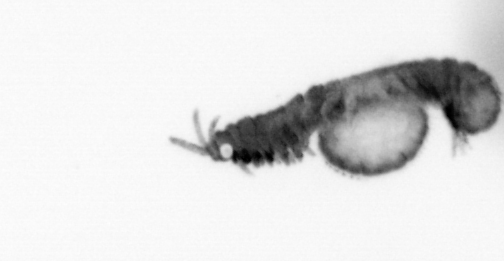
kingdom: Animalia
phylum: Annelida
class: Polychaeta
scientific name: Polychaeta
